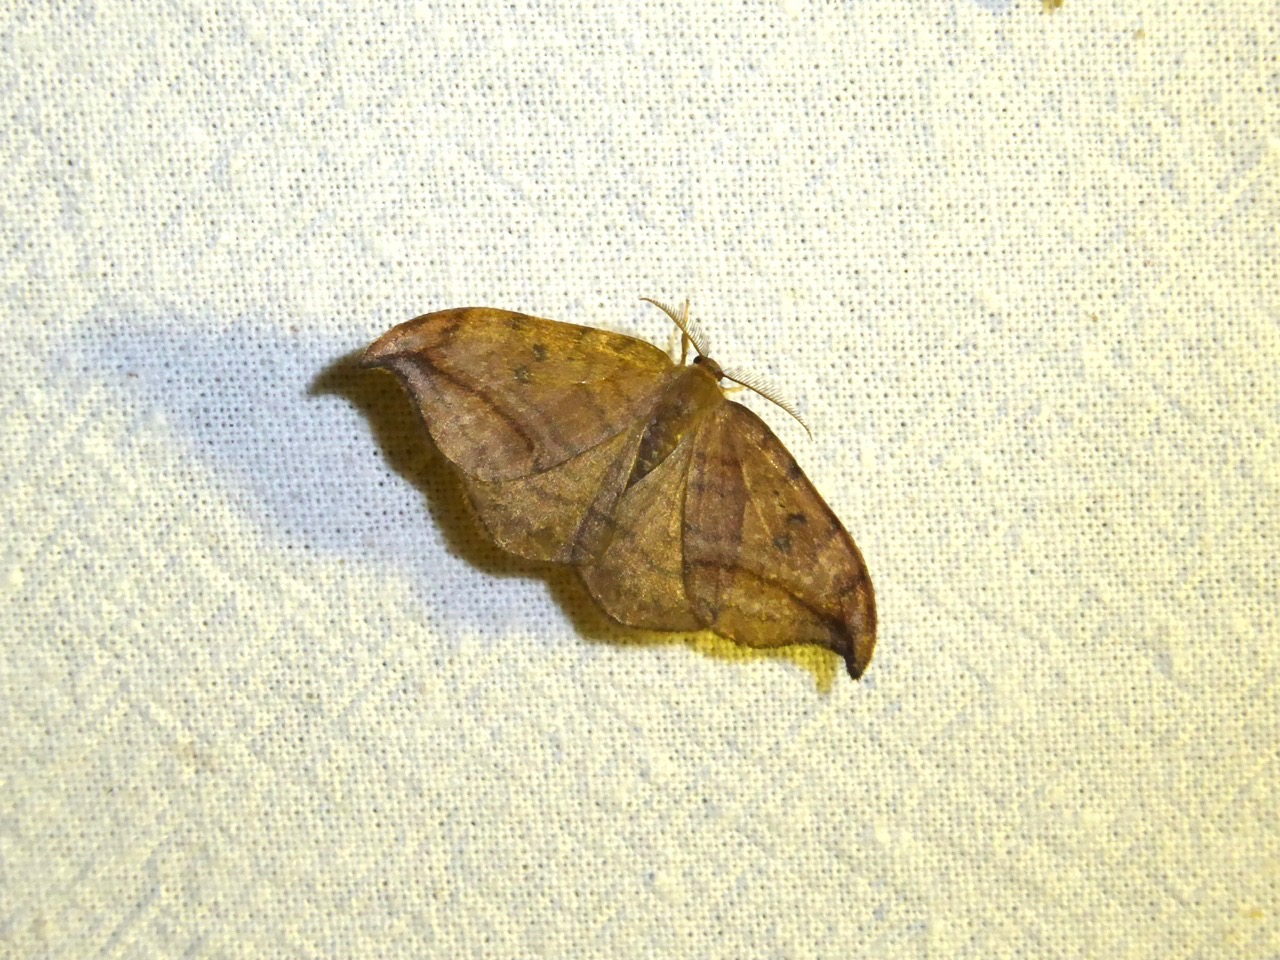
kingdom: Animalia
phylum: Arthropoda
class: Insecta
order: Lepidoptera
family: Drepanidae
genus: Drepana
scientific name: Drepana curvatula
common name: Brun seglvinge
